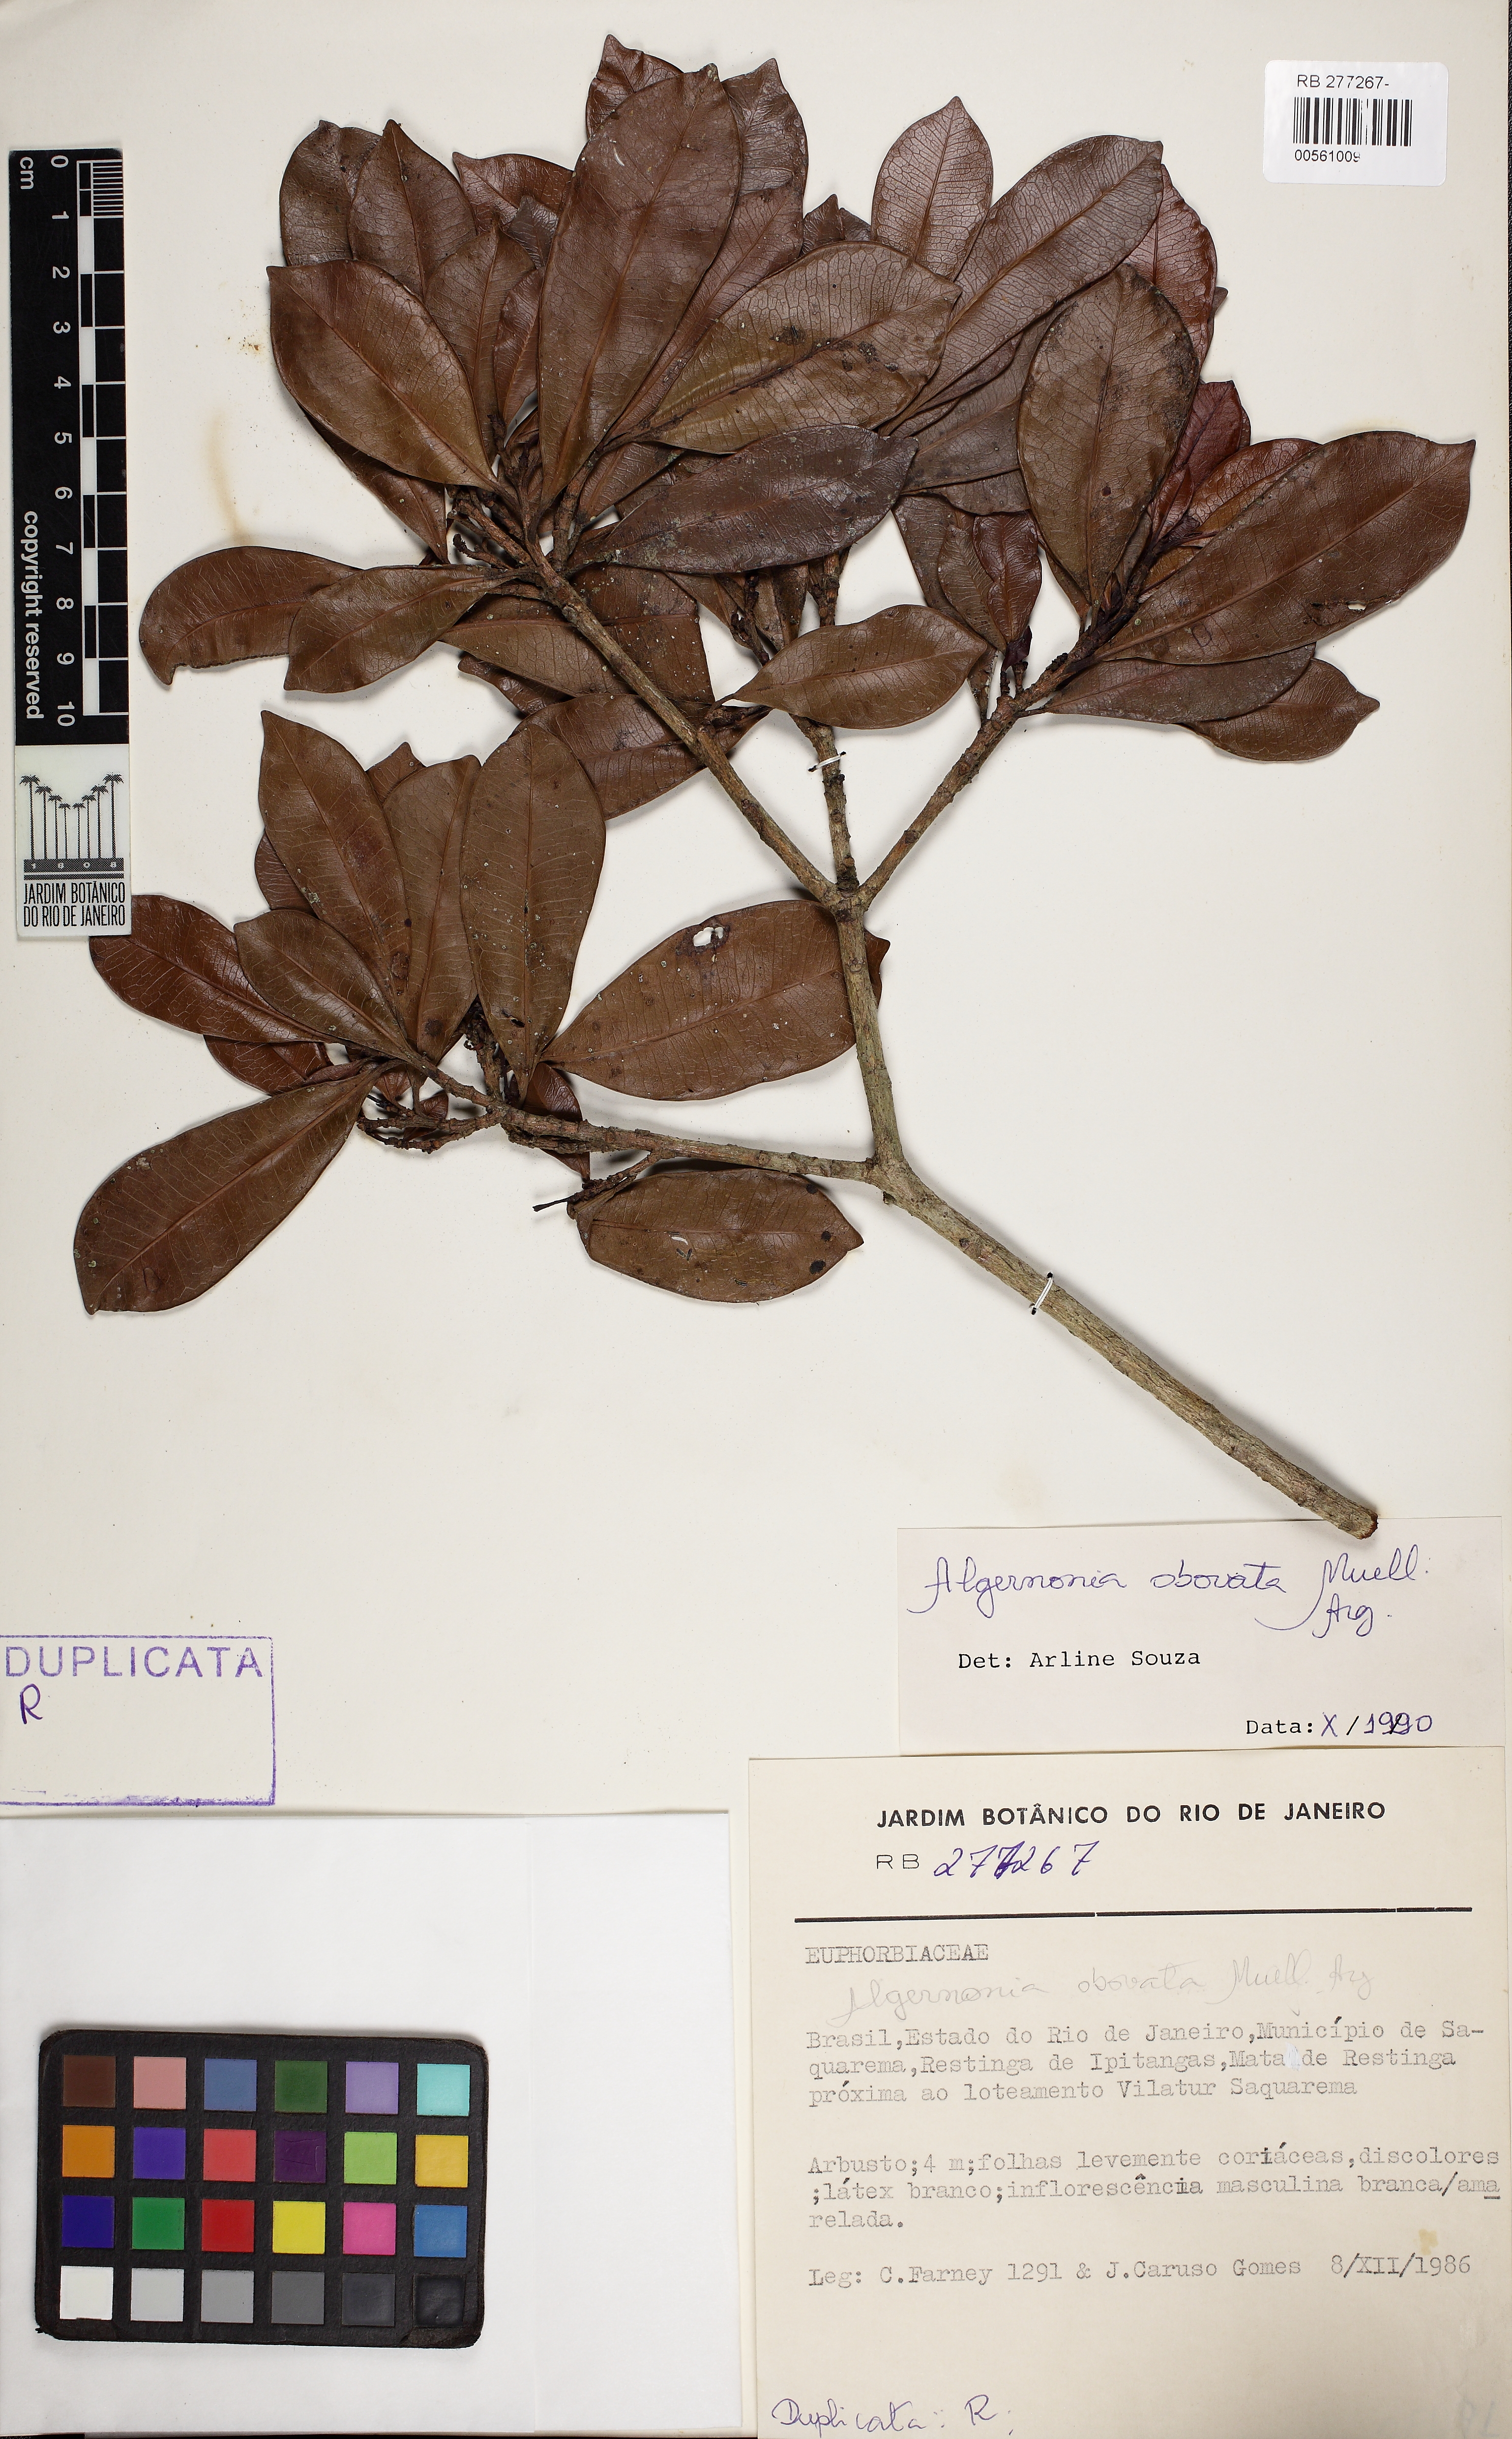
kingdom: Plantae
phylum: Tracheophyta
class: Magnoliopsida
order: Malpighiales
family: Euphorbiaceae
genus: Algernonia
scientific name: Algernonia obovata
